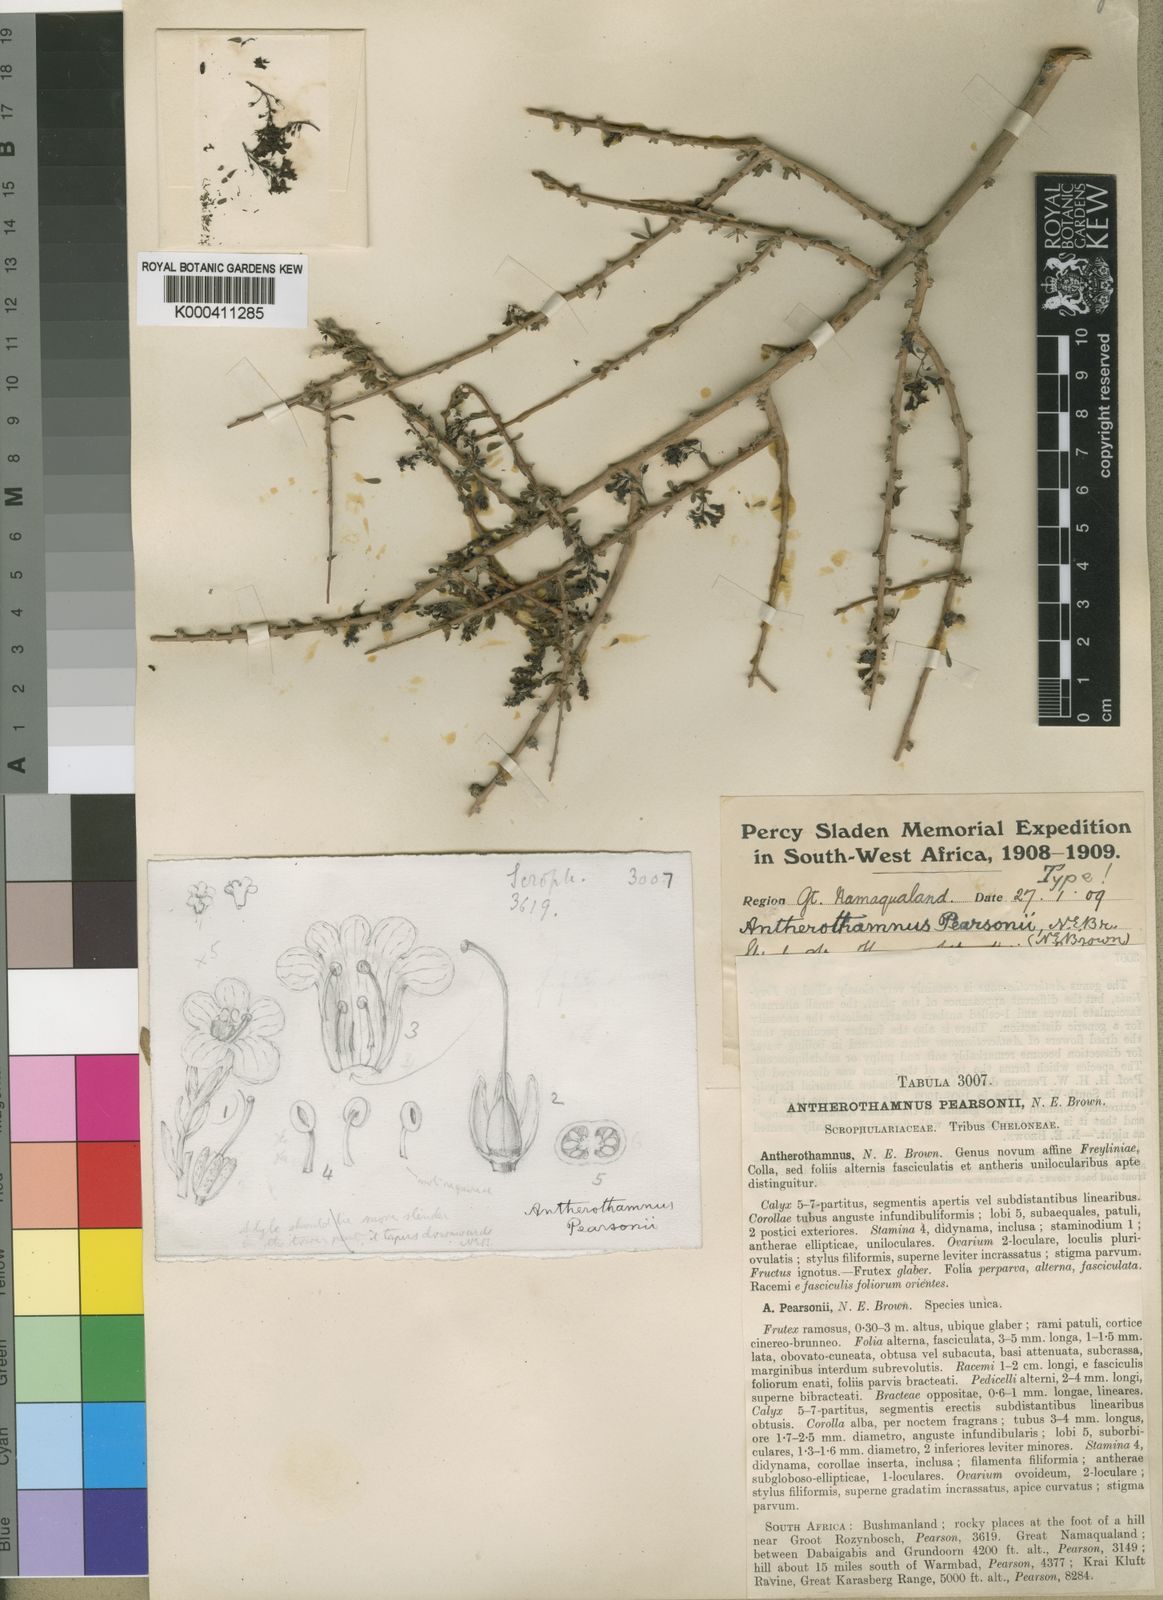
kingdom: Plantae
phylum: Tracheophyta
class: Magnoliopsida
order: Lamiales
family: Scrophulariaceae
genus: Antherothamnus
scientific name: Antherothamnus pearsonii
